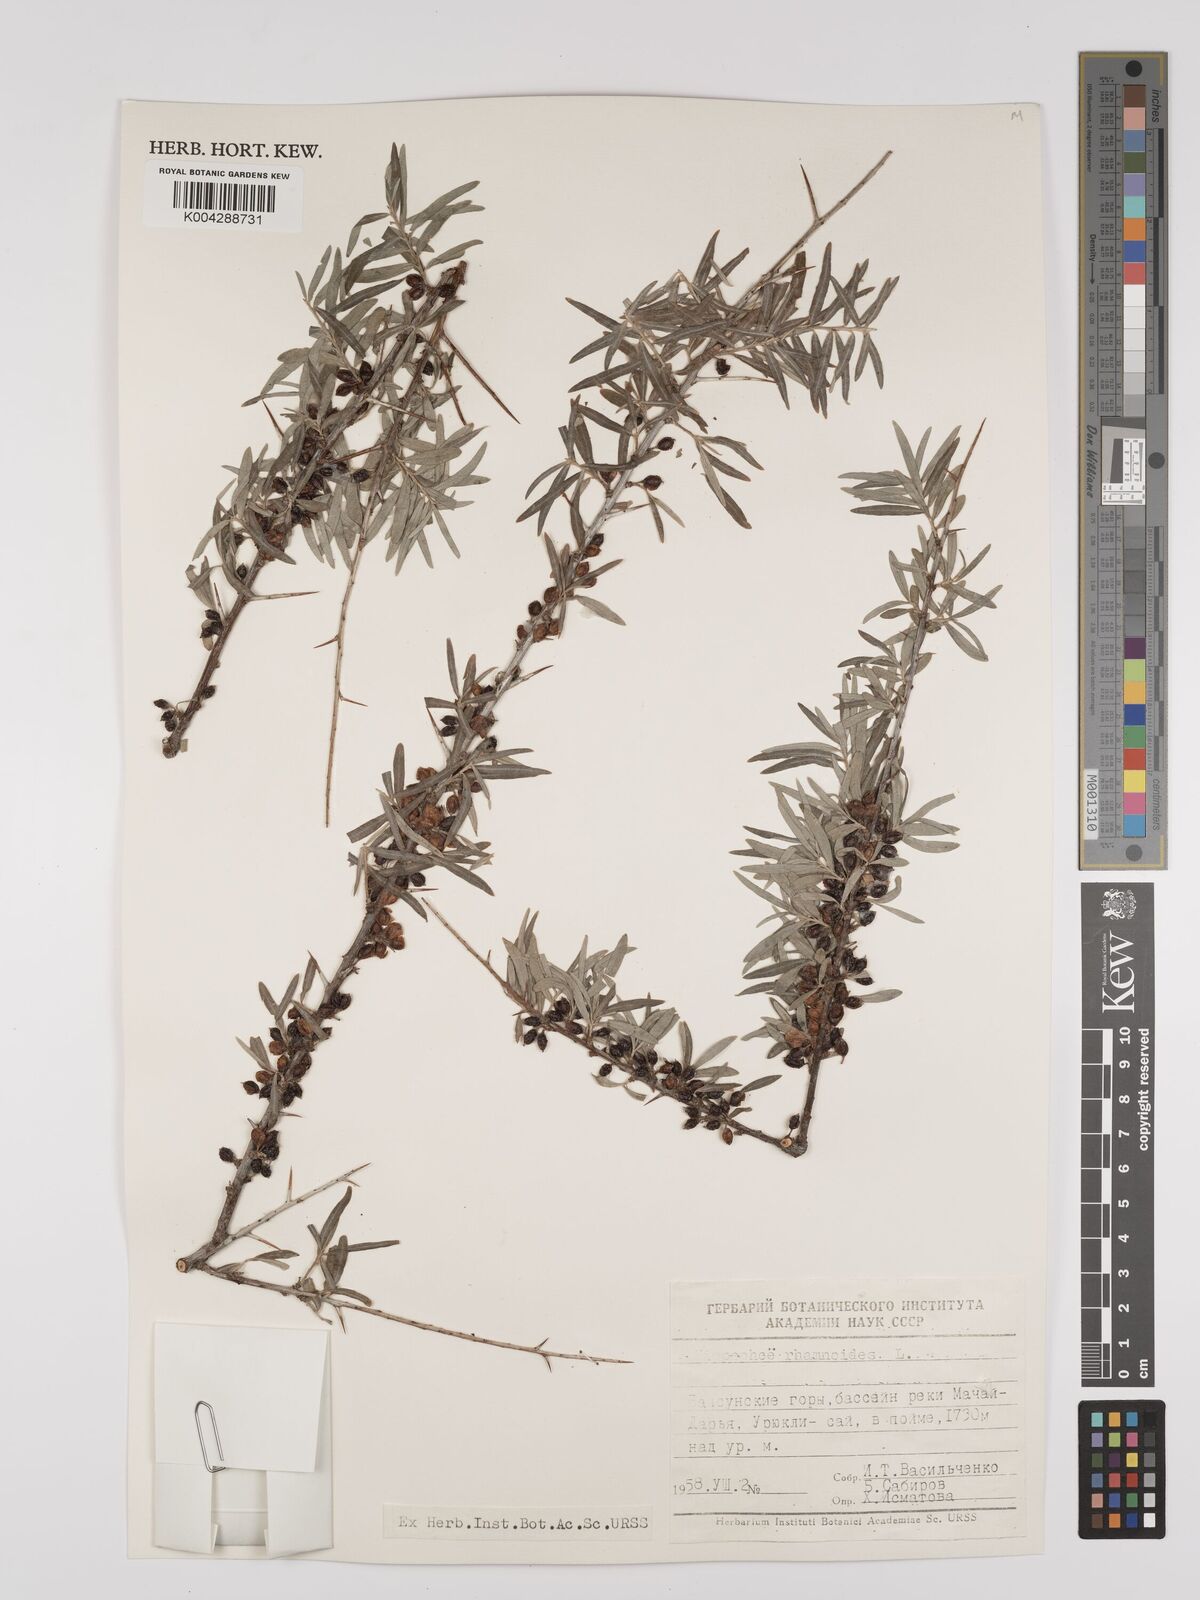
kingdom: Plantae
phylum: Tracheophyta
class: Magnoliopsida
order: Rosales
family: Elaeagnaceae
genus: Hippophae
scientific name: Hippophae rhamnoides
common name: Sea-buckthorn
